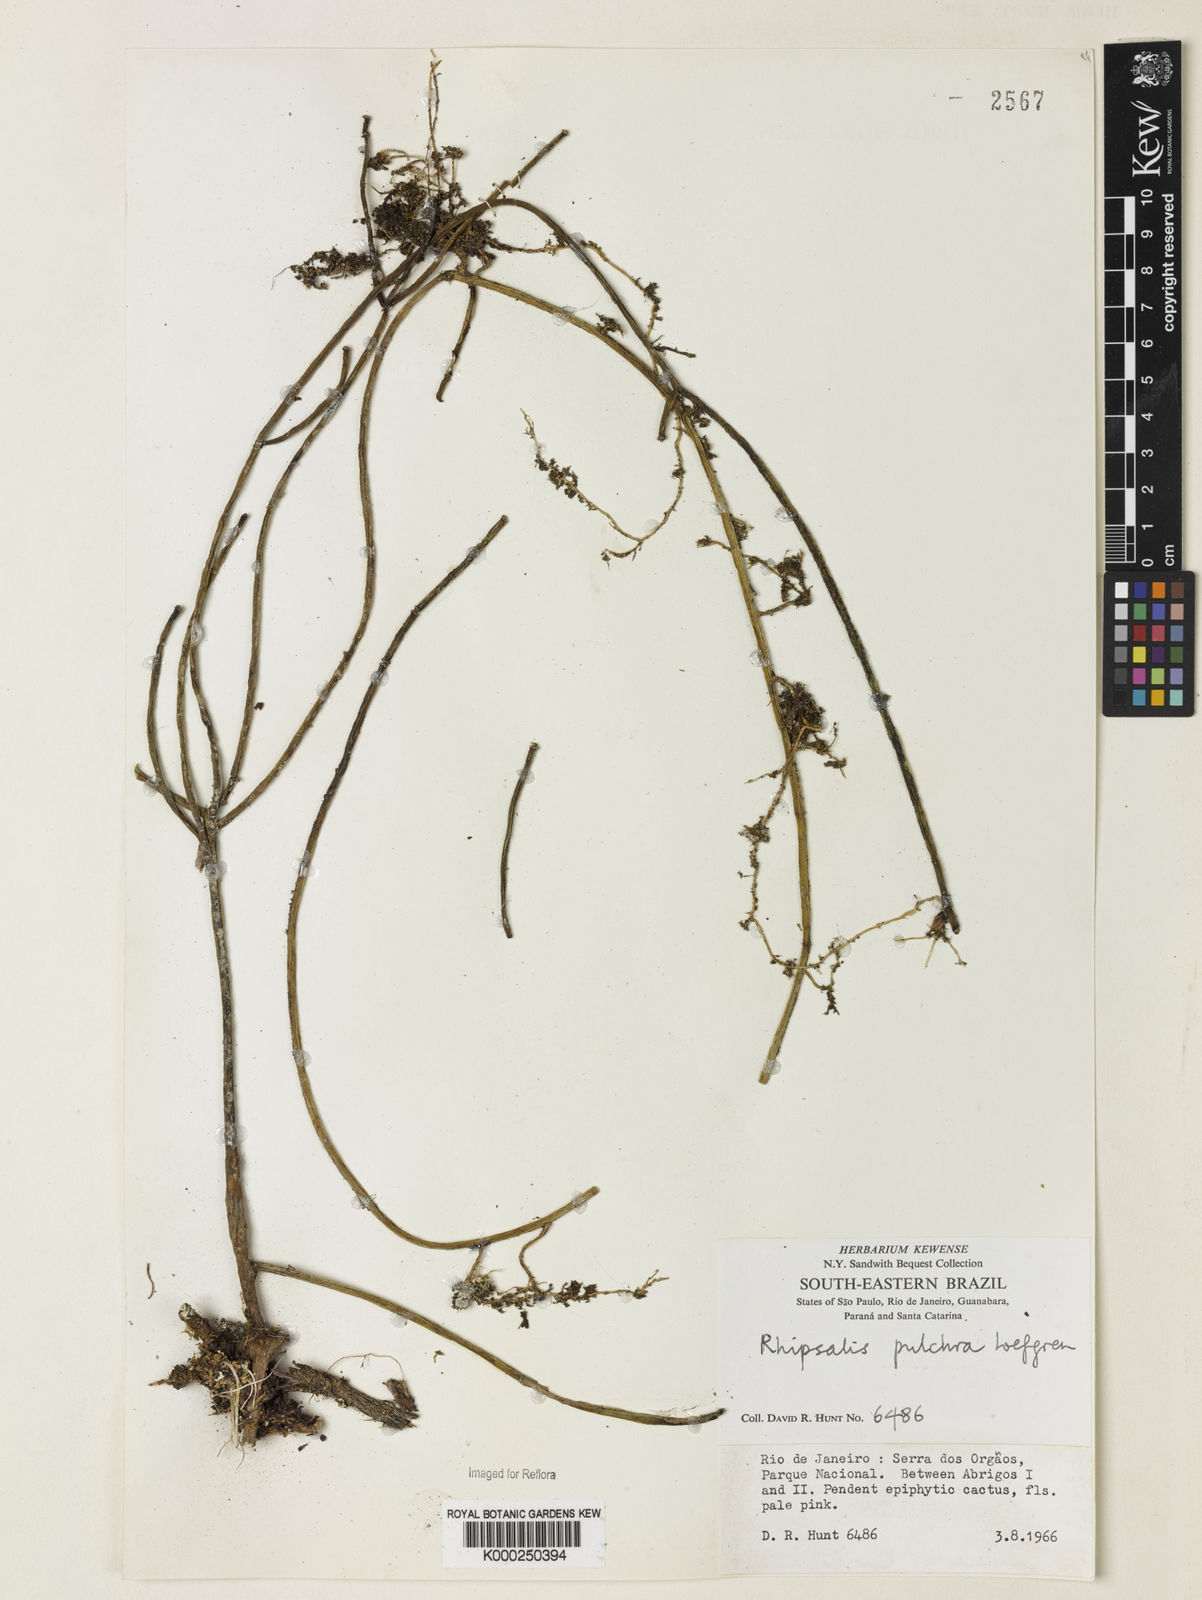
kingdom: Plantae
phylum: Tracheophyta
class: Magnoliopsida
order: Caryophyllales
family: Cactaceae
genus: Rhipsalis
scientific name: Rhipsalis
